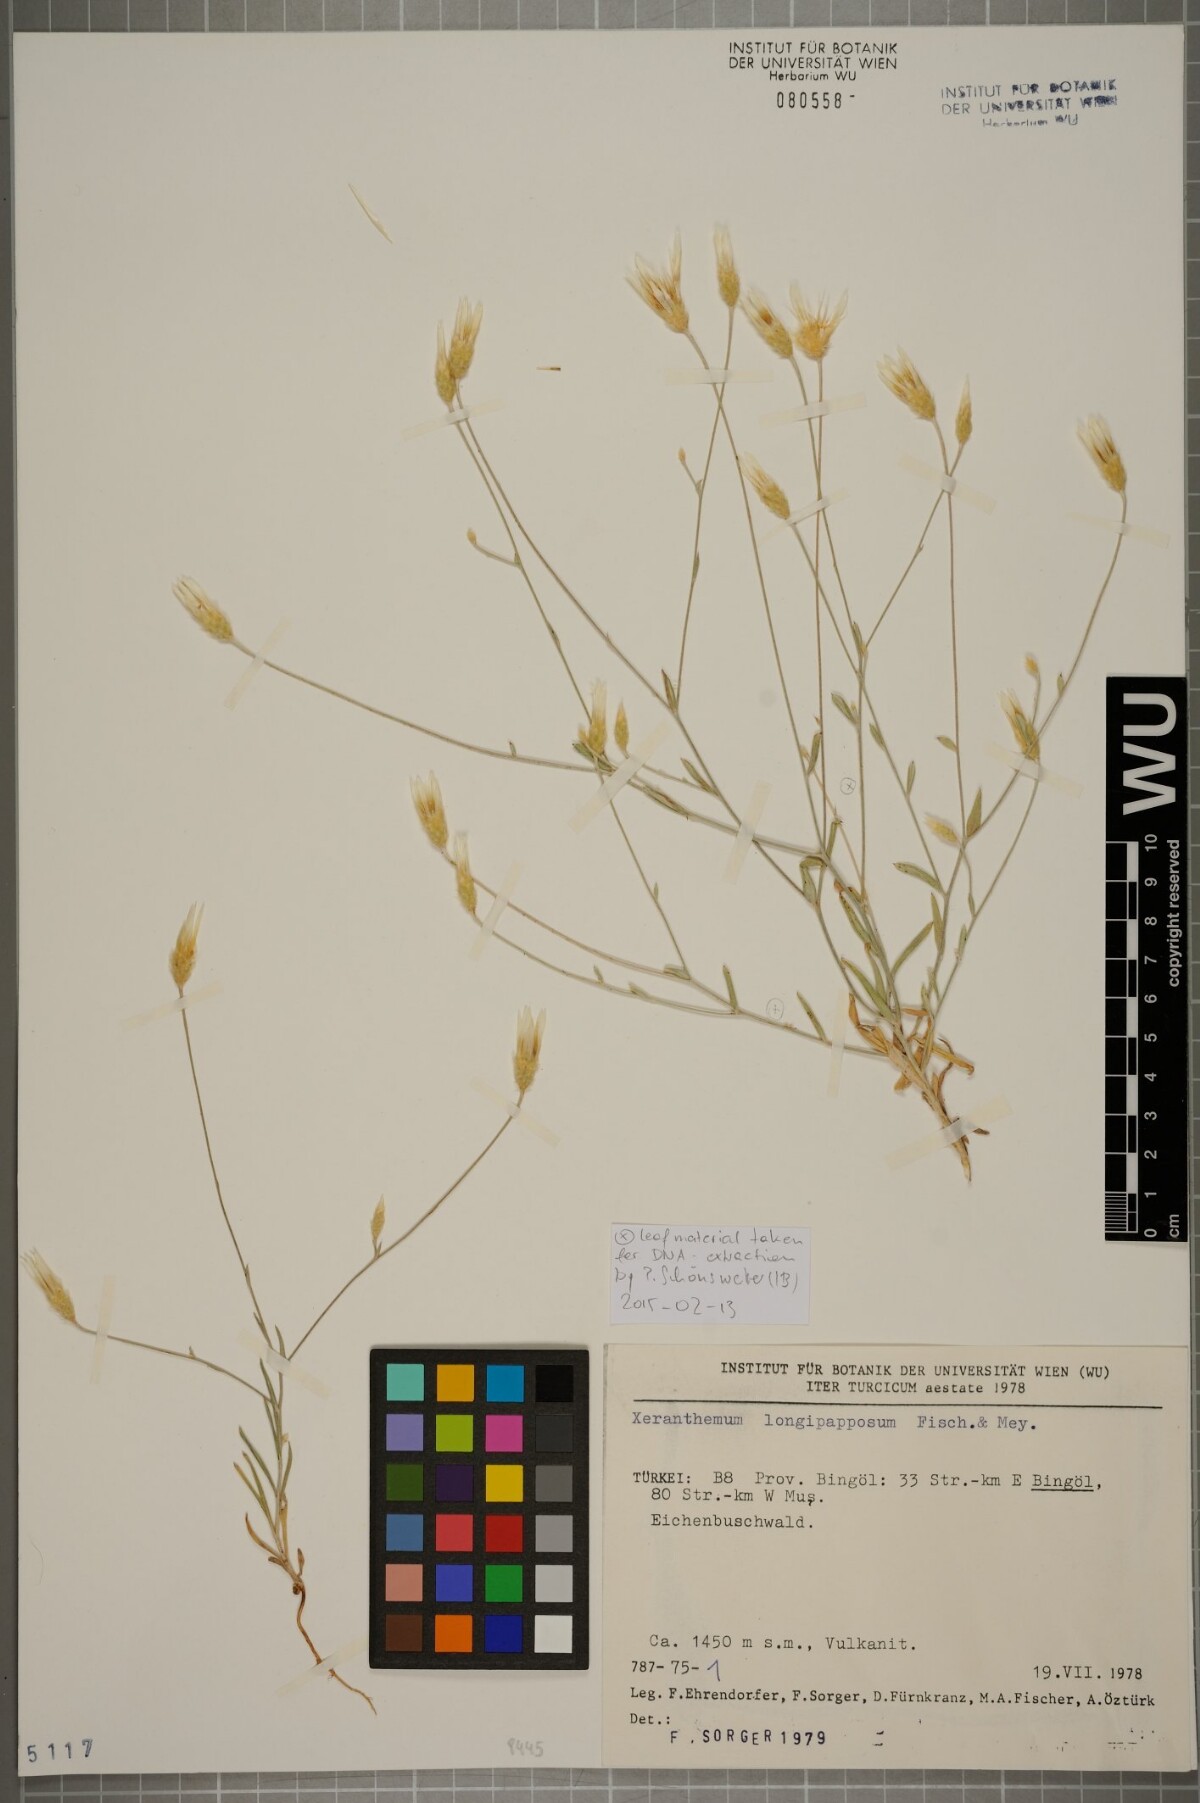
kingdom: Plantae
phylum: Tracheophyta
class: Magnoliopsida
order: Asterales
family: Asteraceae
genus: Xeranthemum
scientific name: Xeranthemum longepapposum
